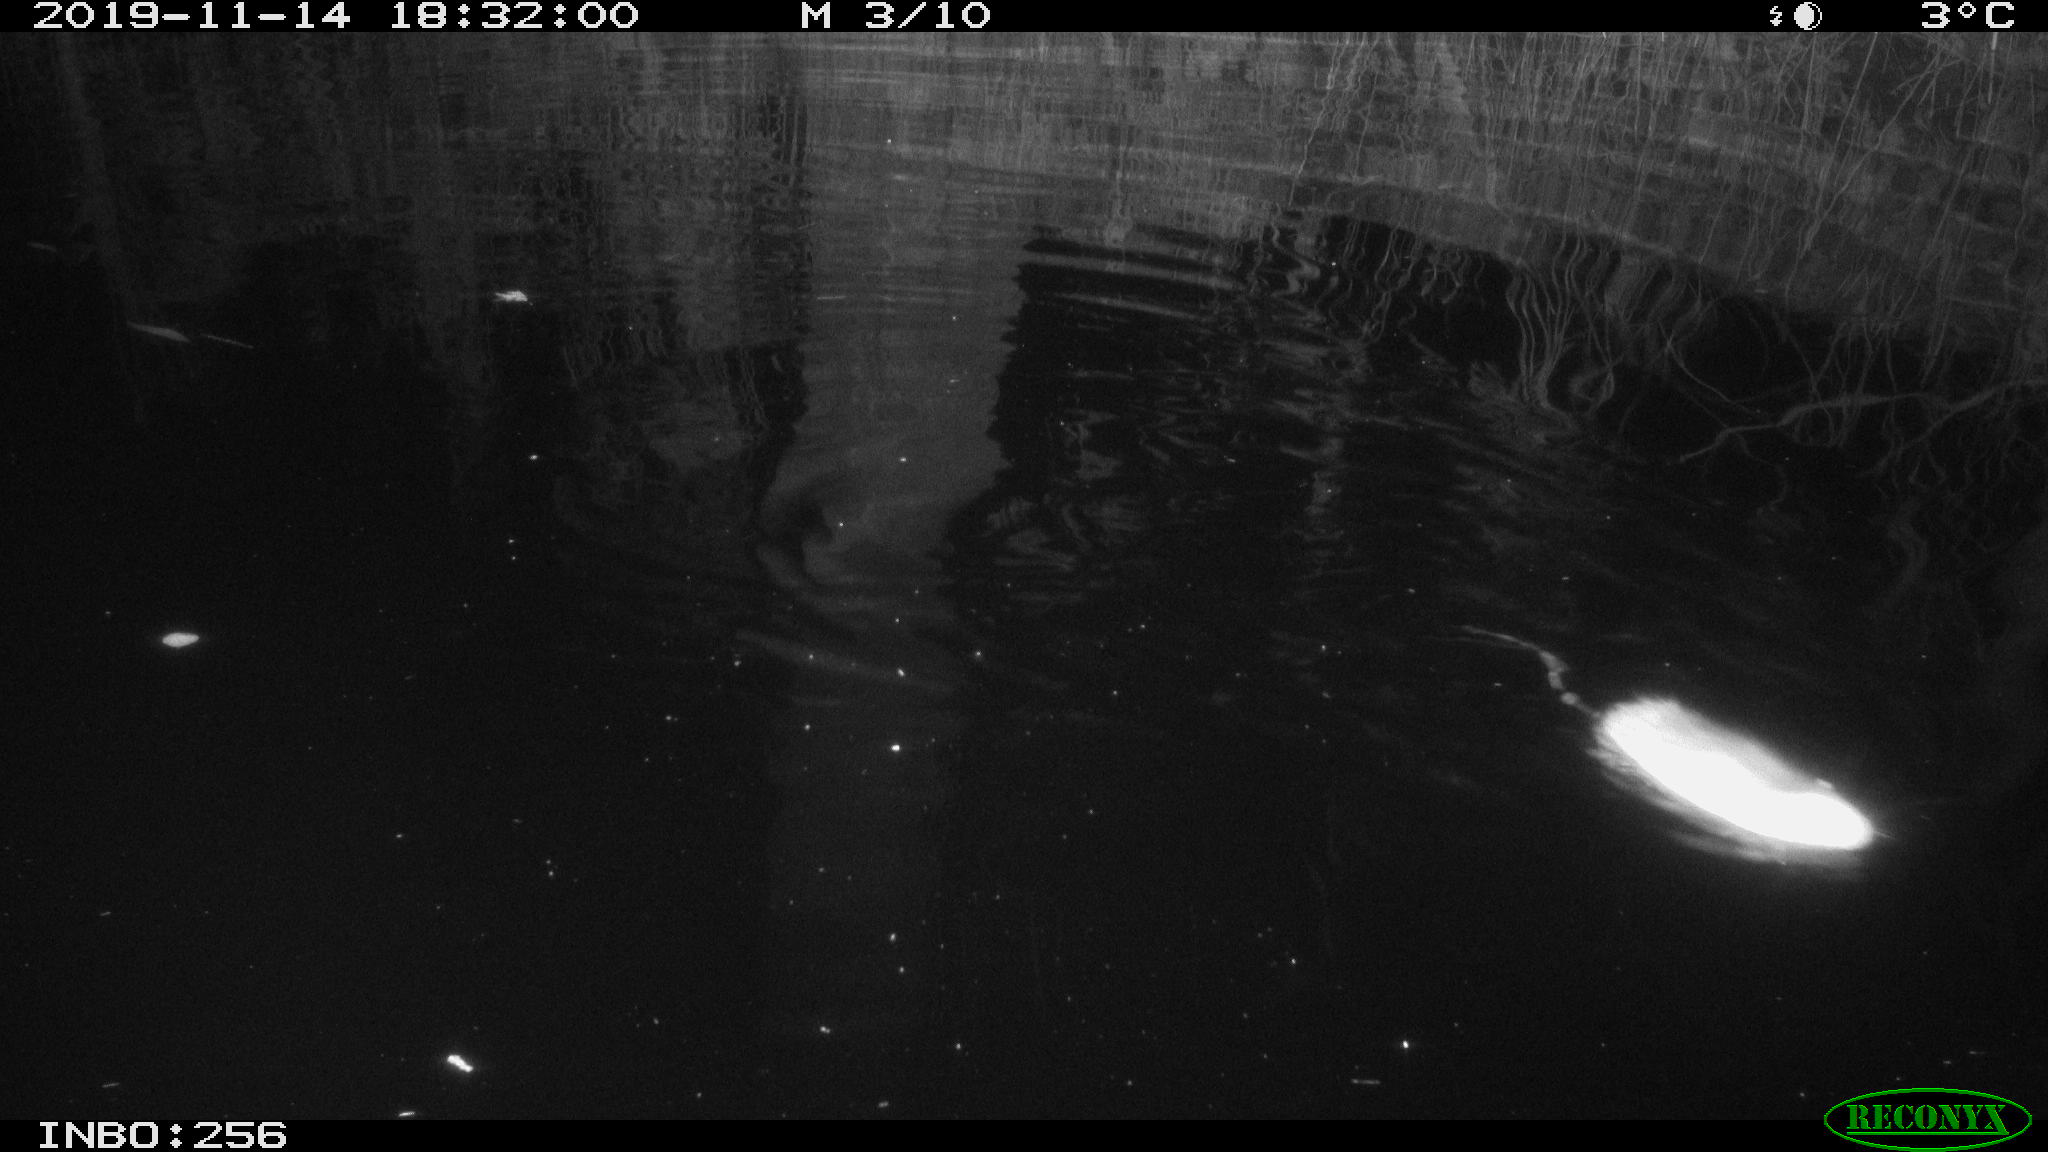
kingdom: Animalia
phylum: Chordata
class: Mammalia
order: Rodentia
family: Muridae
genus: Rattus
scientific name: Rattus norvegicus
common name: Brown rat
